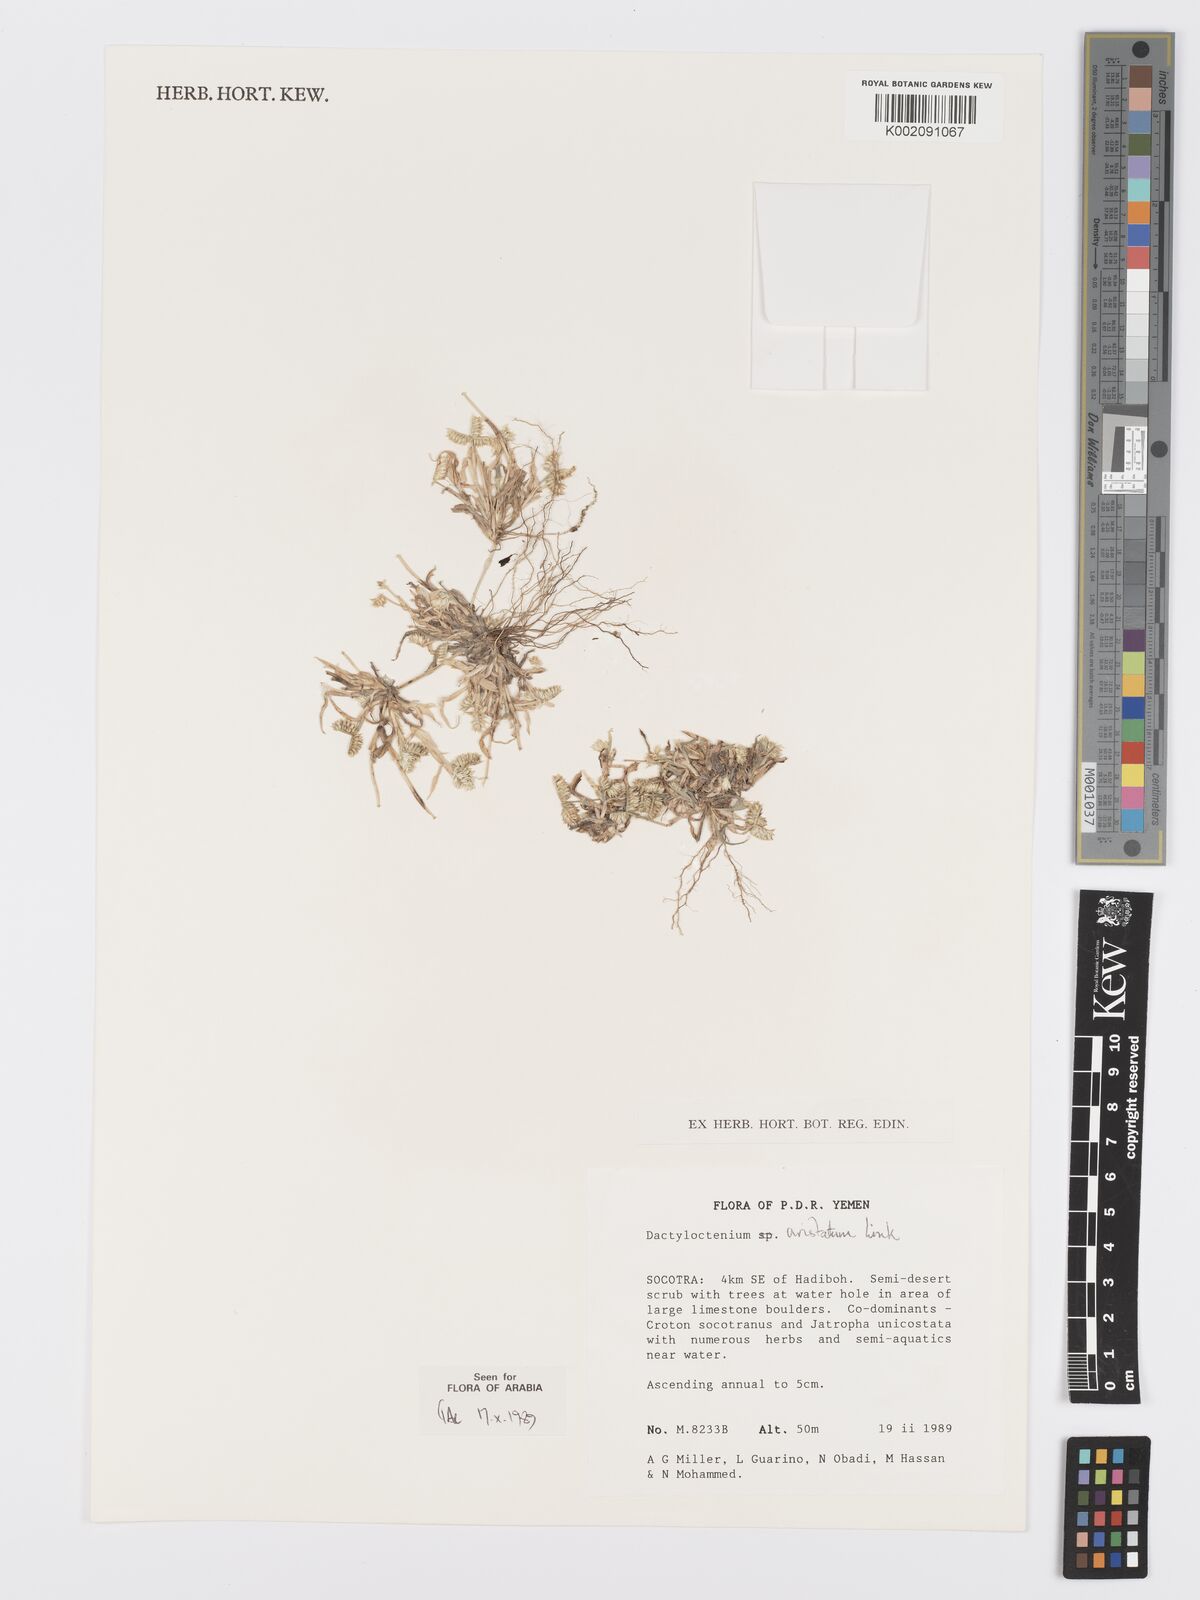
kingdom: Plantae
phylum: Tracheophyta
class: Liliopsida
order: Poales
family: Poaceae
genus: Dactyloctenium
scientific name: Dactyloctenium aristatum
